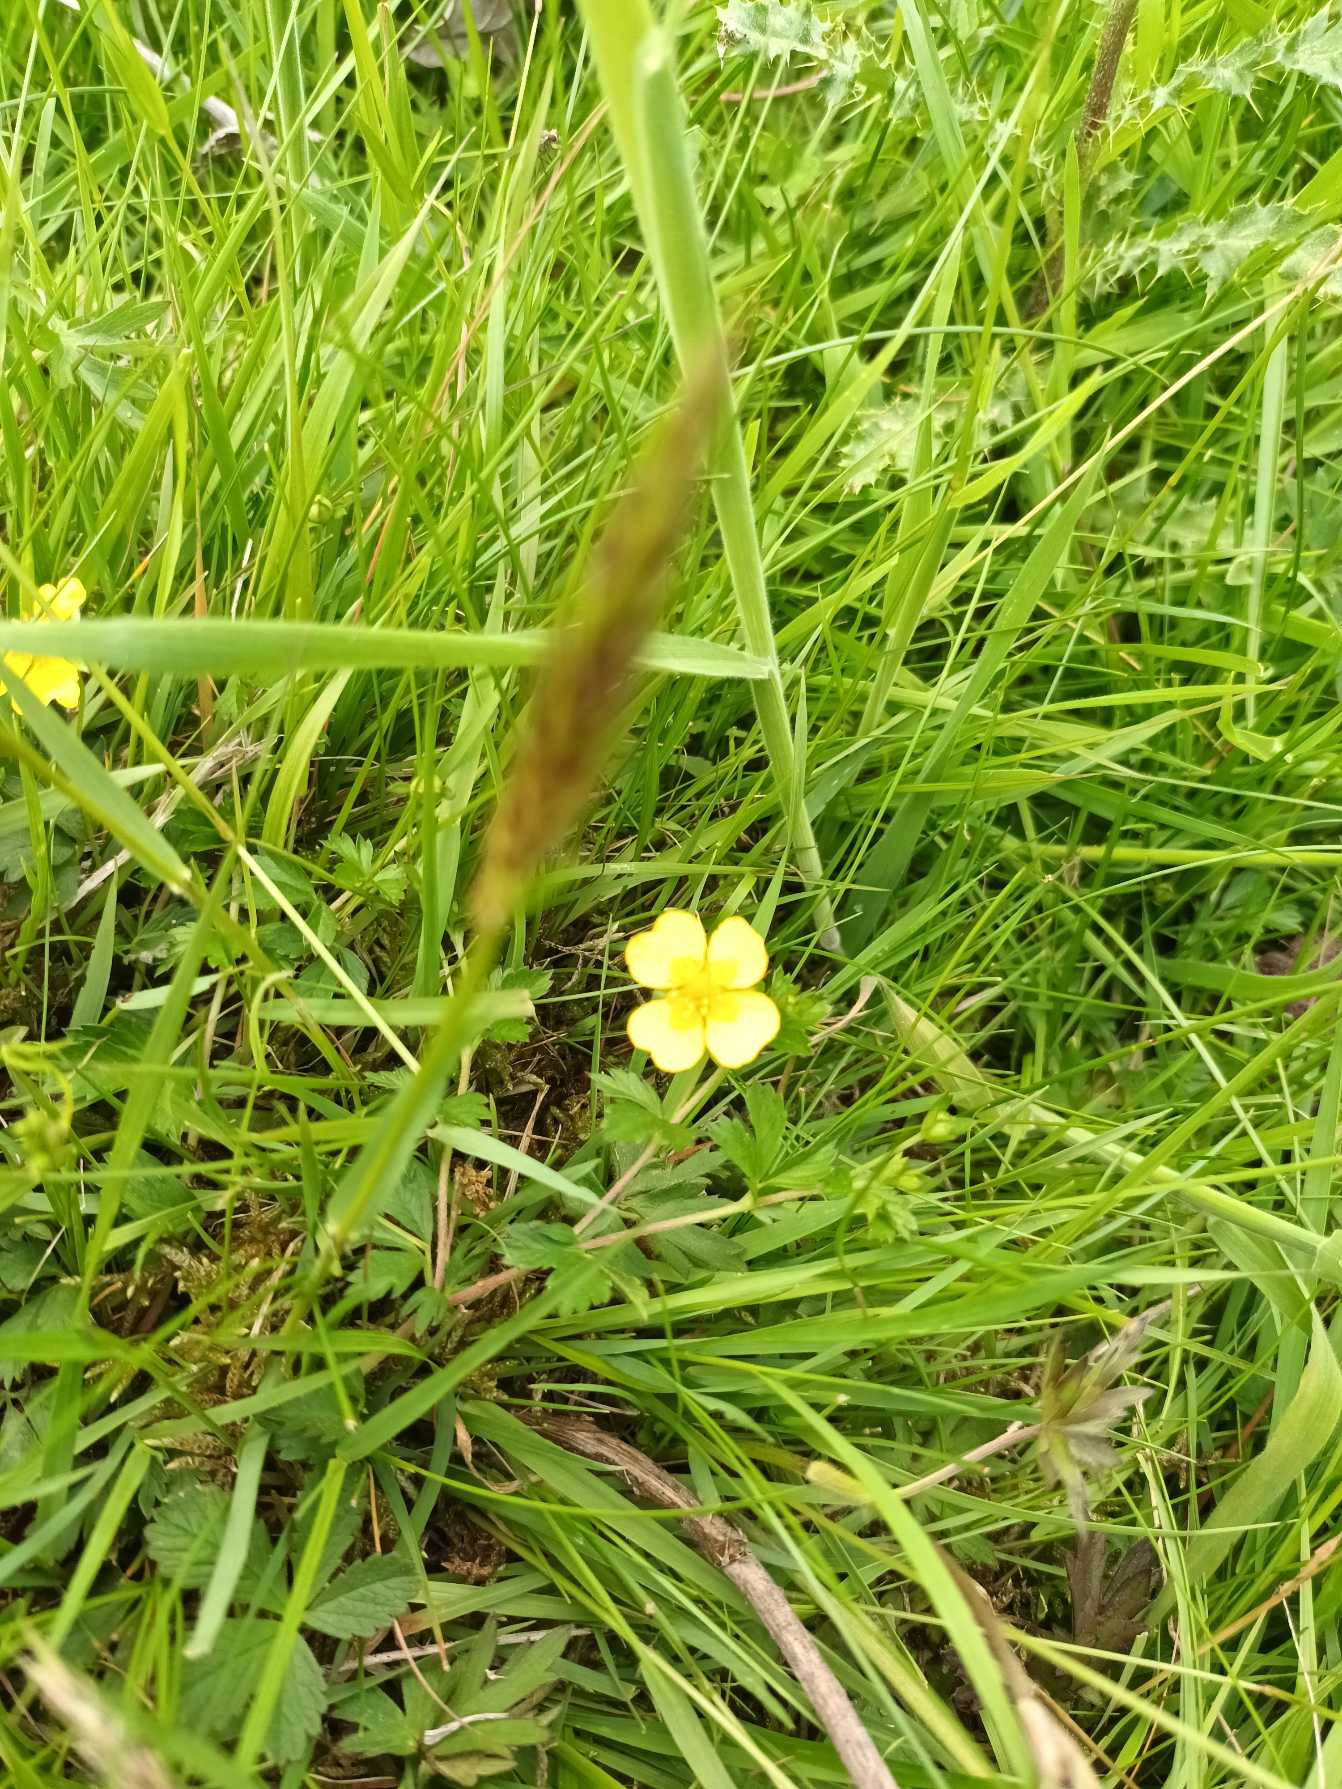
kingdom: Plantae
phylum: Tracheophyta
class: Magnoliopsida
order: Rosales
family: Rosaceae
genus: Potentilla
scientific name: Potentilla anglica
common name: Liggende potentil
